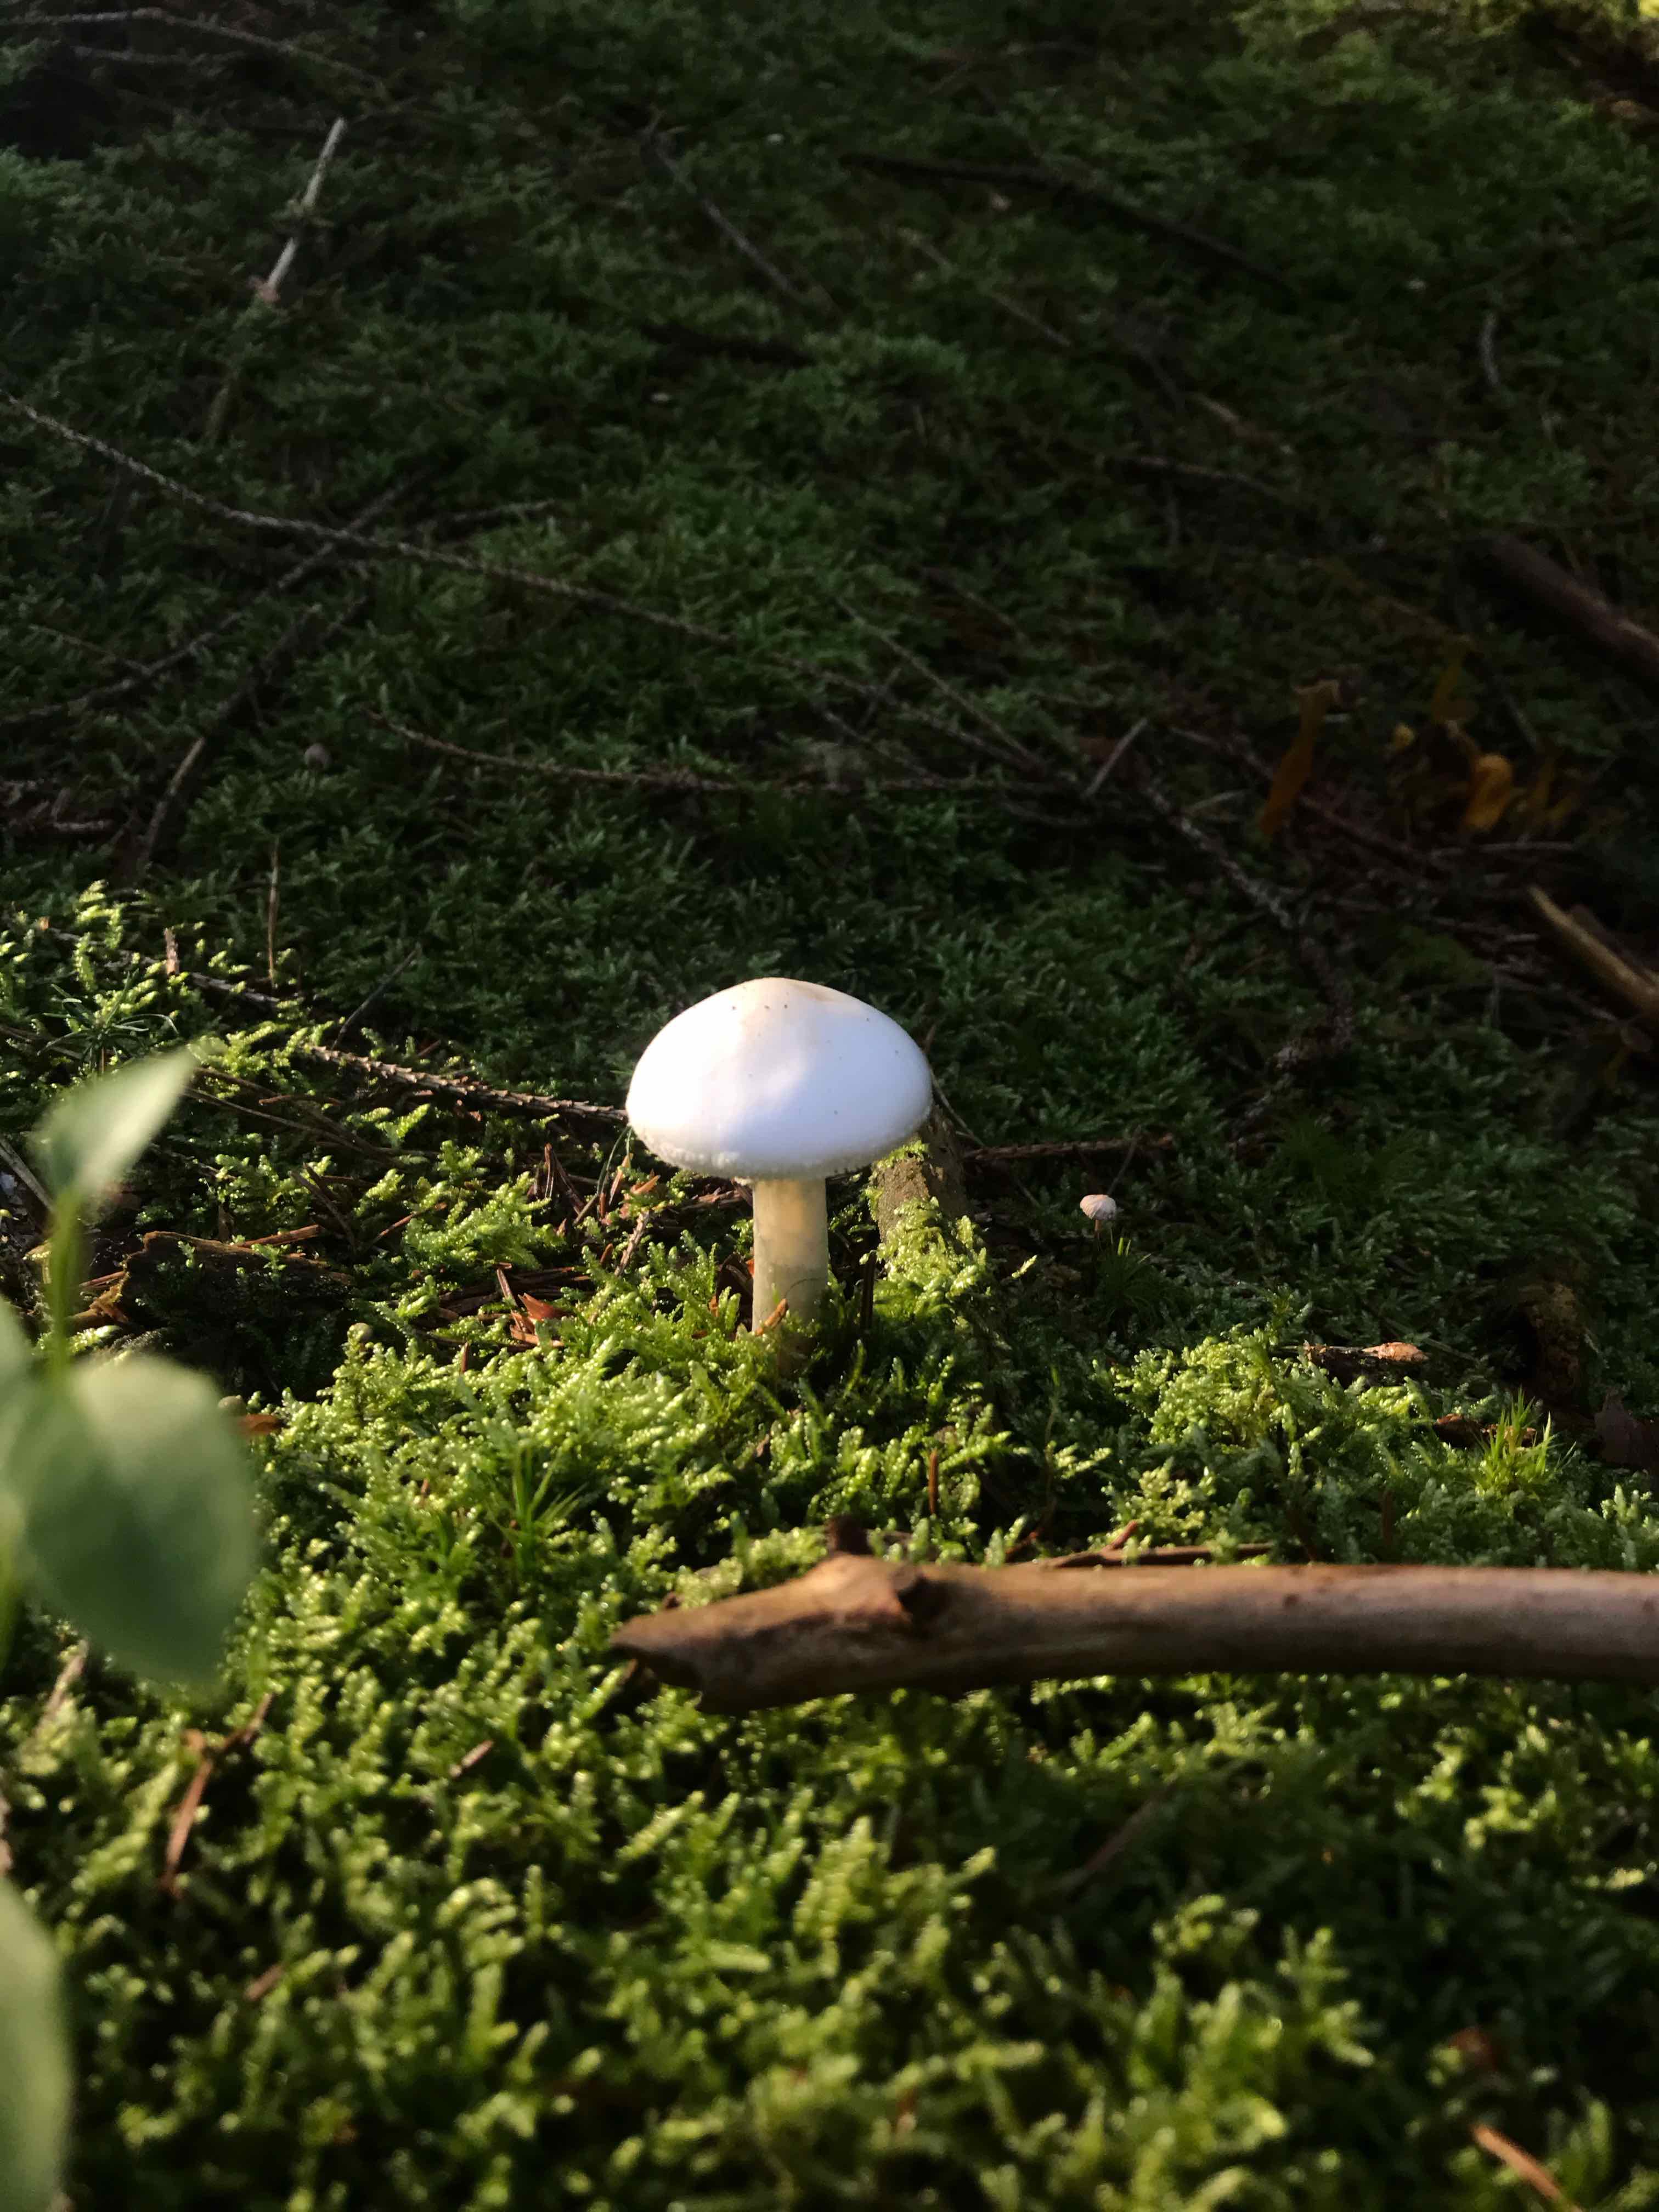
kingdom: Fungi
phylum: Basidiomycota
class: Agaricomycetes
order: Agaricales
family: Amanitaceae
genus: Amanita
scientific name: Amanita citrina
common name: False death-cap
